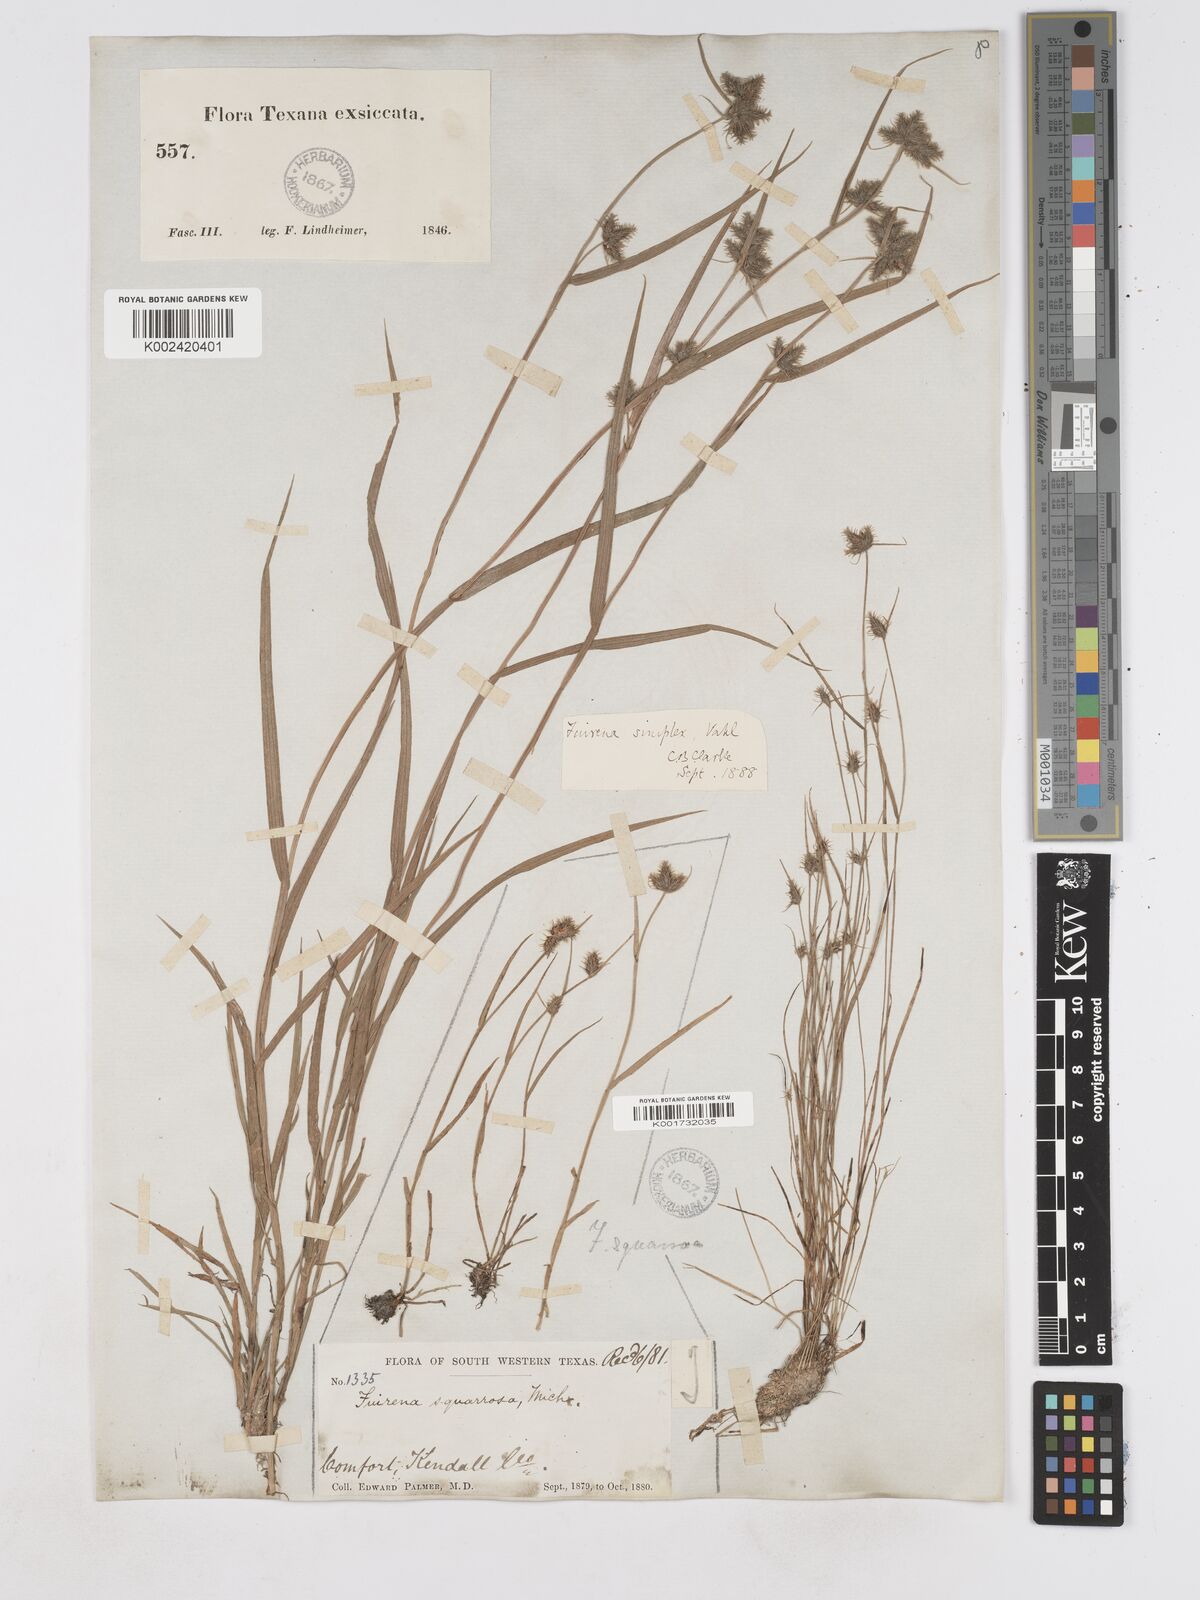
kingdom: Plantae
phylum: Tracheophyta
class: Liliopsida
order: Poales
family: Cyperaceae
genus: Fuirena
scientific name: Fuirena simplex
